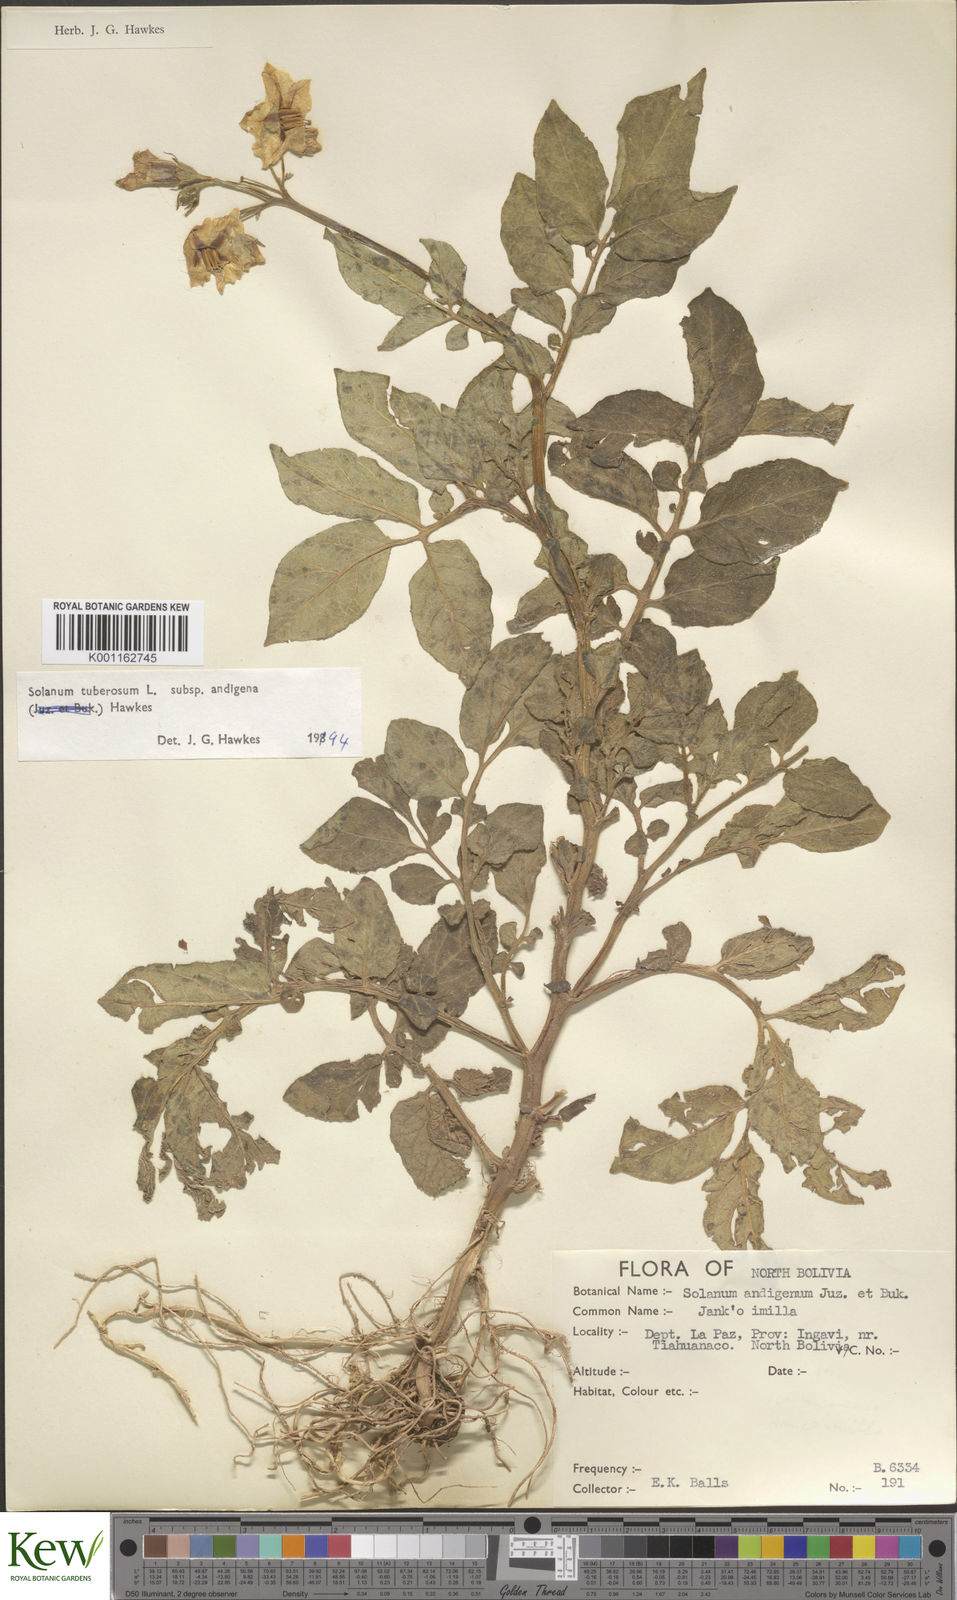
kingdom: Plantae
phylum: Tracheophyta
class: Magnoliopsida
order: Solanales
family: Solanaceae
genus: Solanum
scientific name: Solanum tuberosum
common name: Potato
